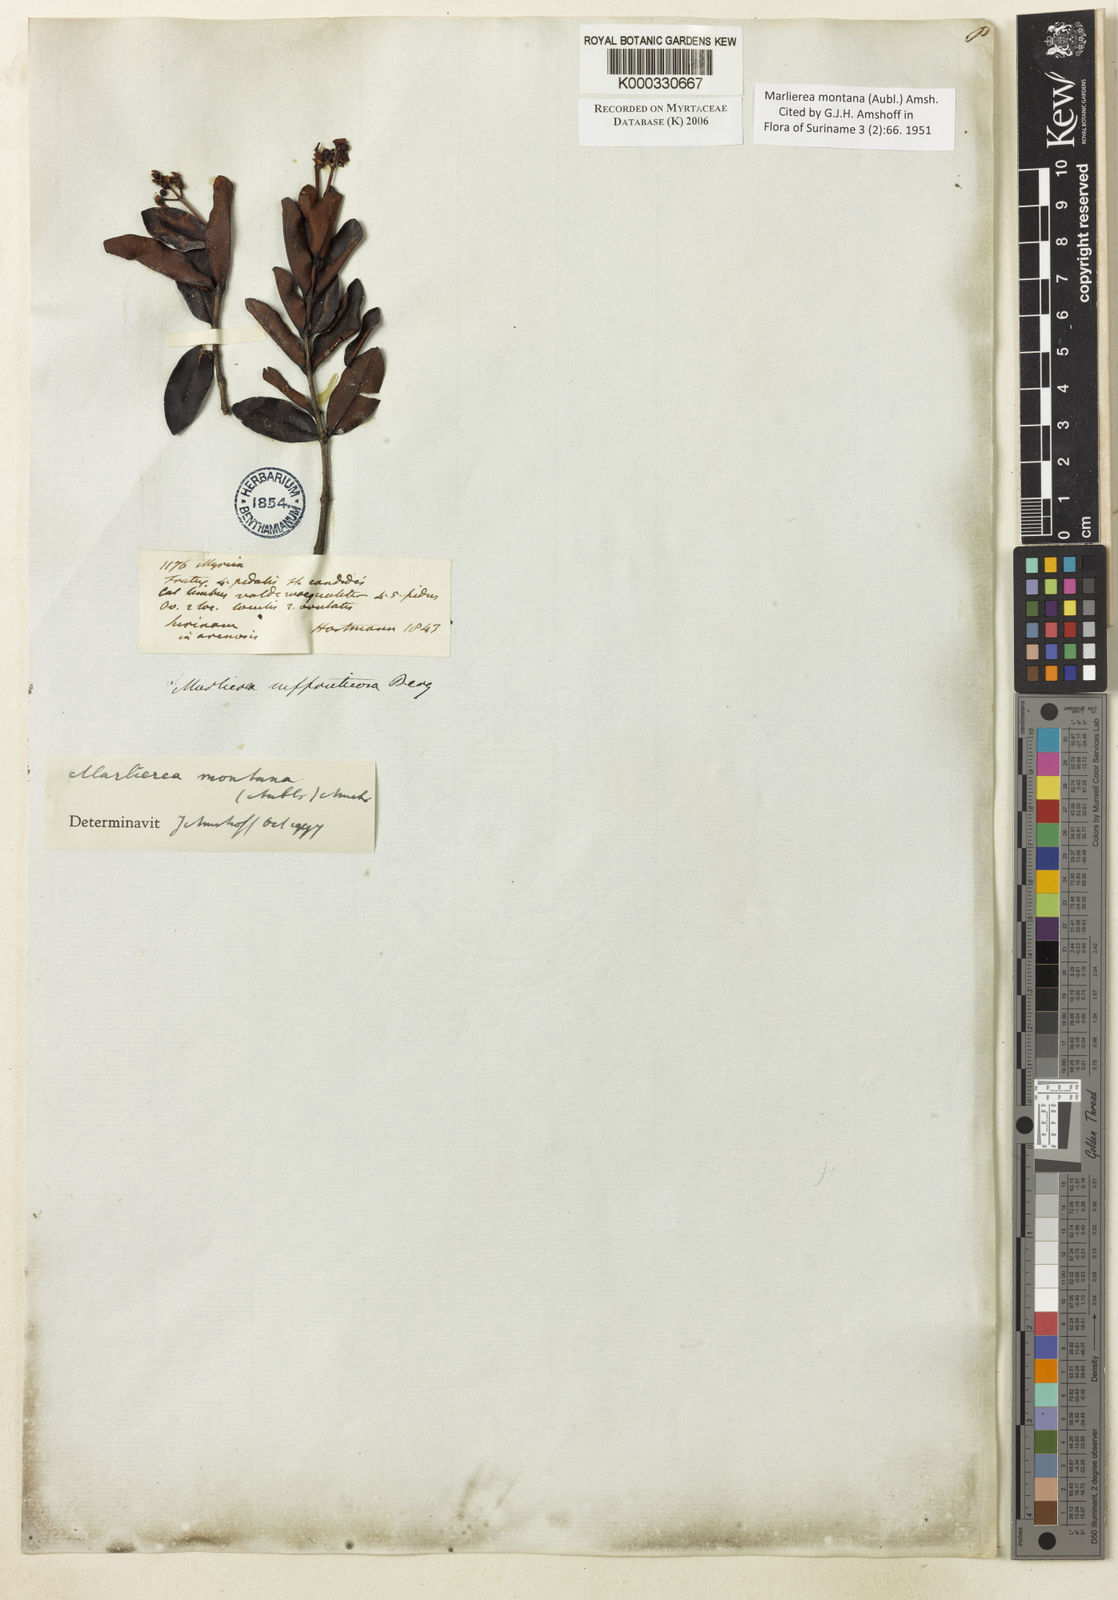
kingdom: Plantae
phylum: Tracheophyta
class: Magnoliopsida
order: Myrtales
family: Myrtaceae
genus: Myrcia
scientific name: Myrcia neomontana
